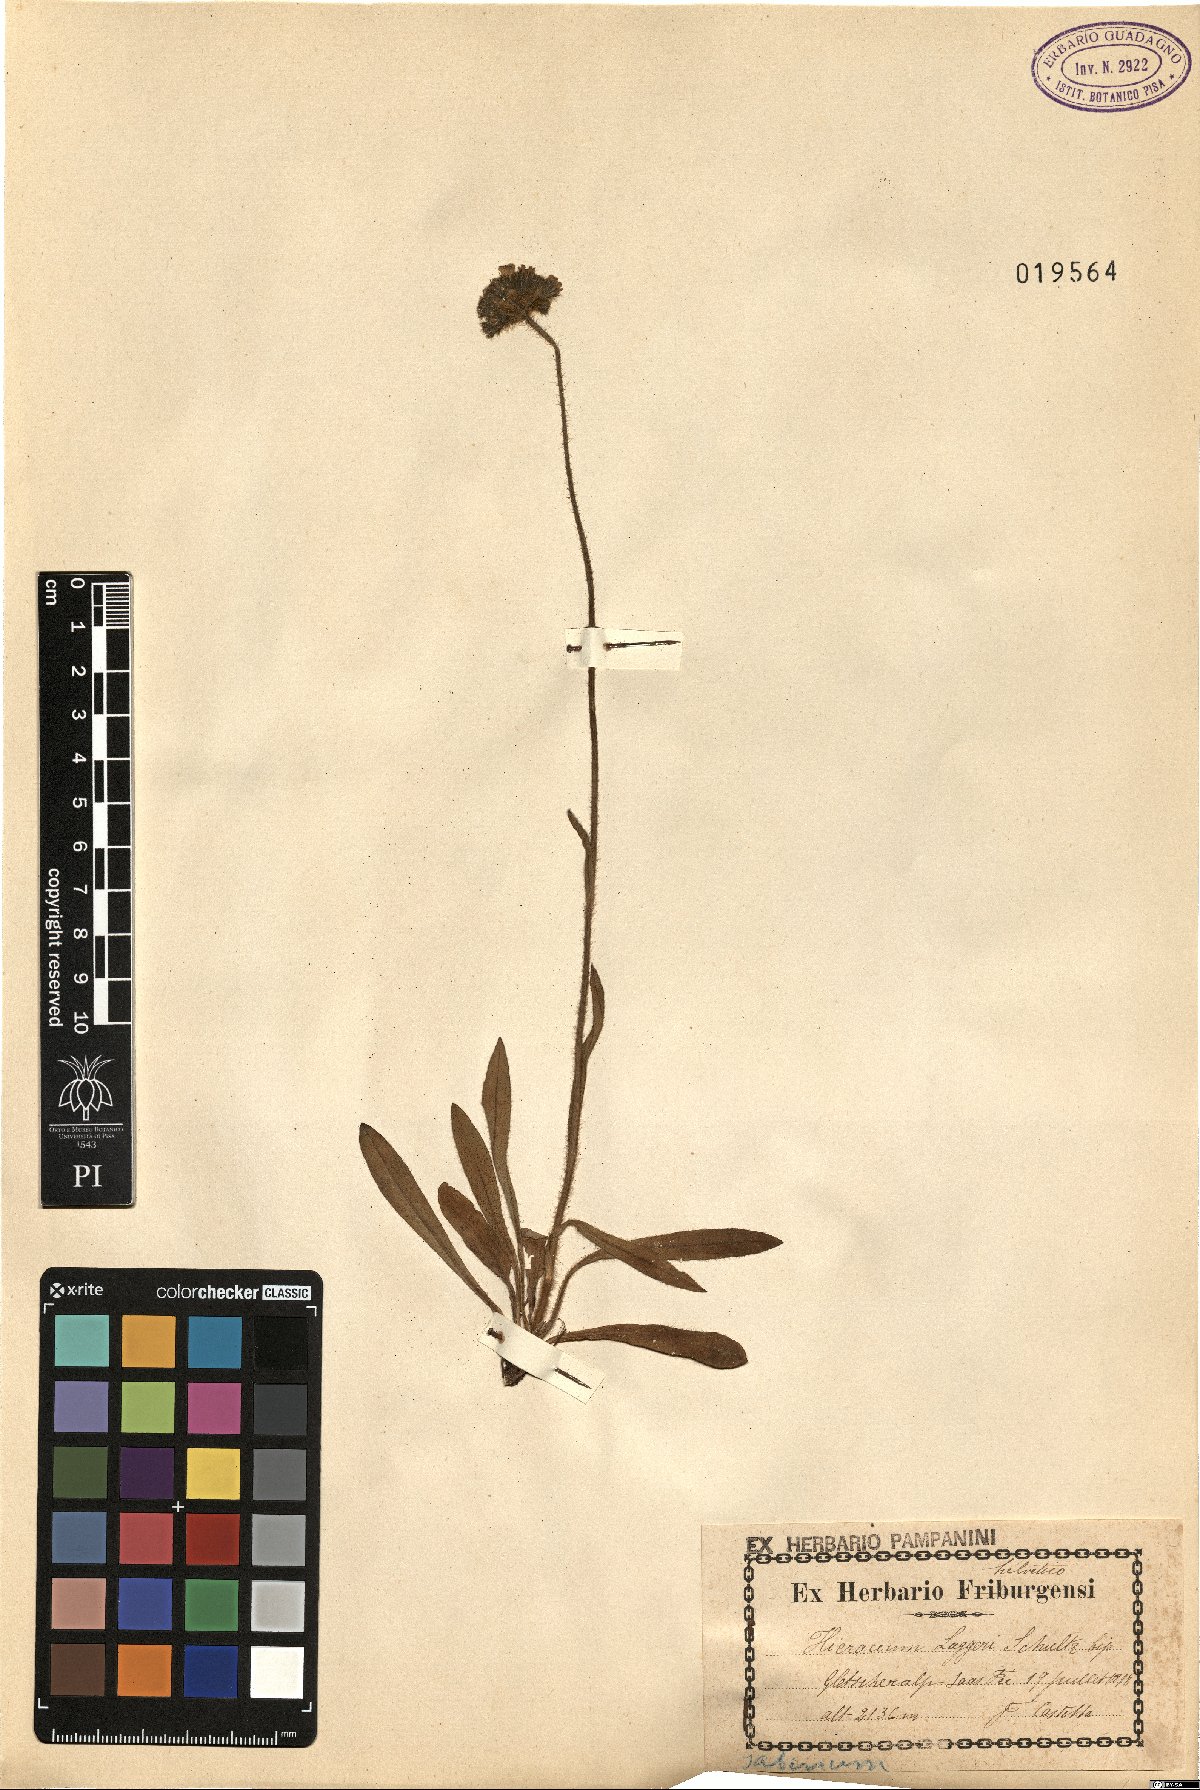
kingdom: Plantae
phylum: Tracheophyta
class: Magnoliopsida
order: Asterales
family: Asteraceae
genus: Hieracium
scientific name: Hieracium jordanii
